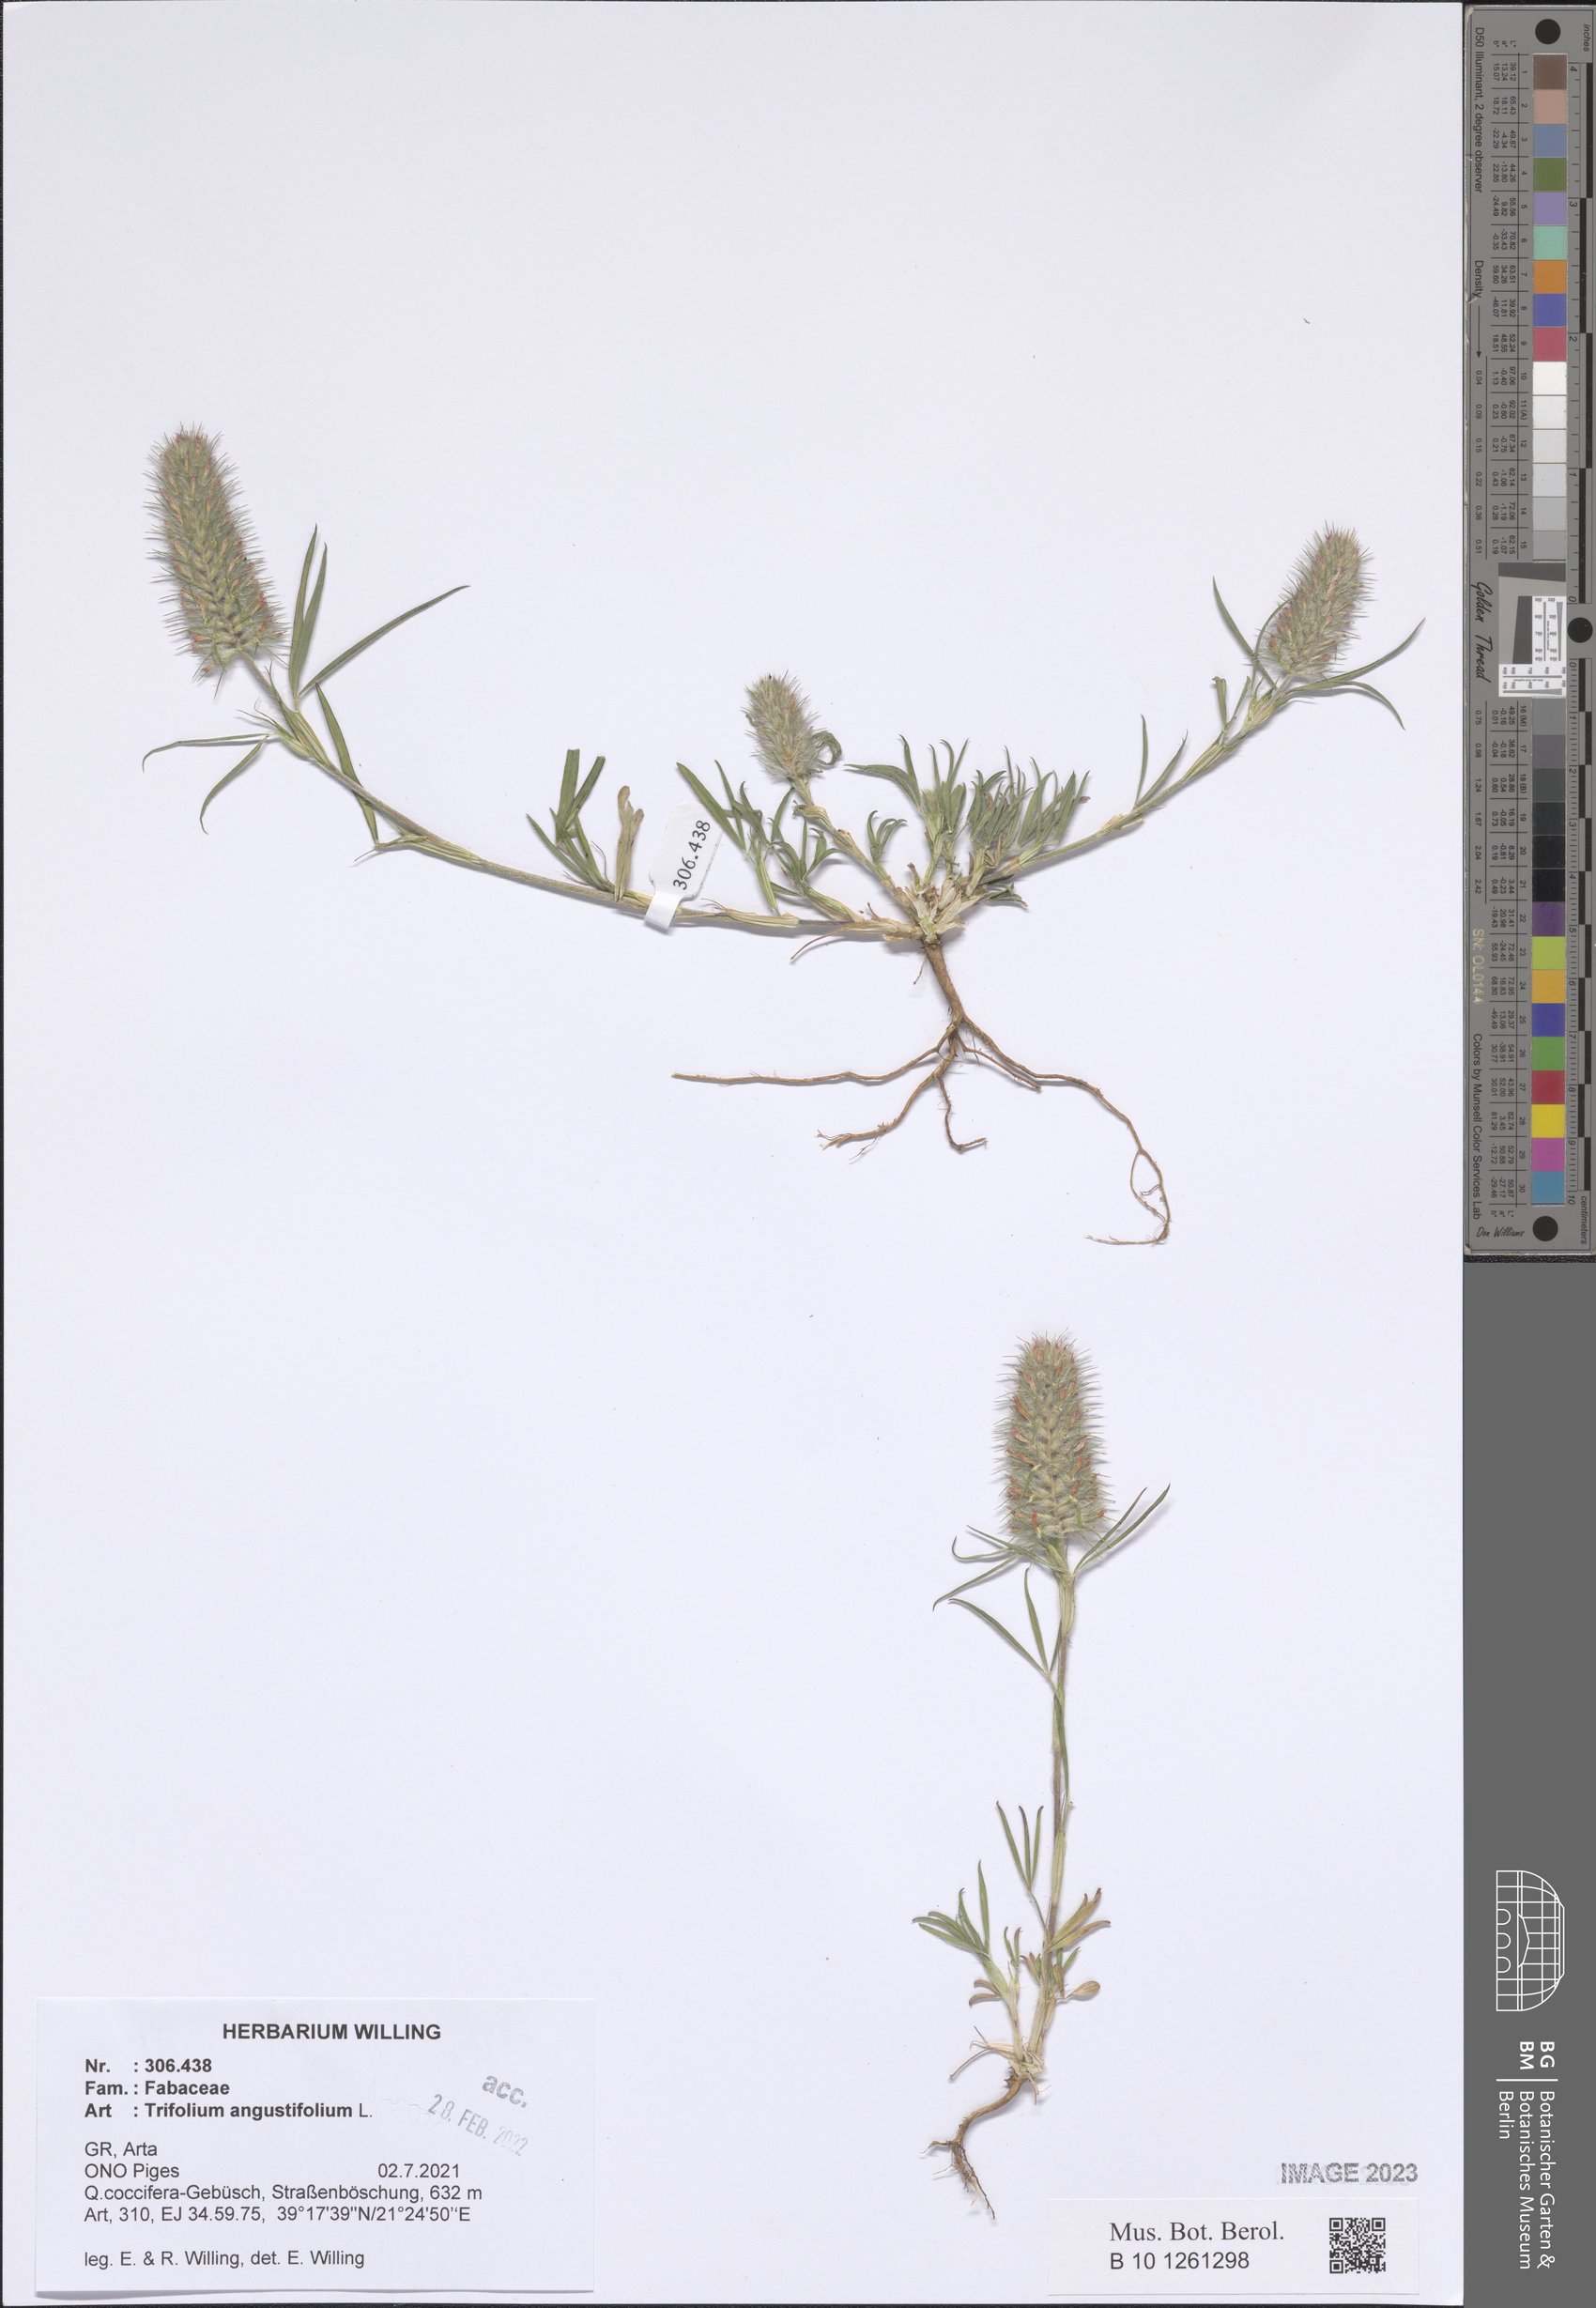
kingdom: Plantae
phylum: Tracheophyta
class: Magnoliopsida
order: Fabales
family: Fabaceae
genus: Trifolium
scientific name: Trifolium angustifolium
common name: Narrow clover
